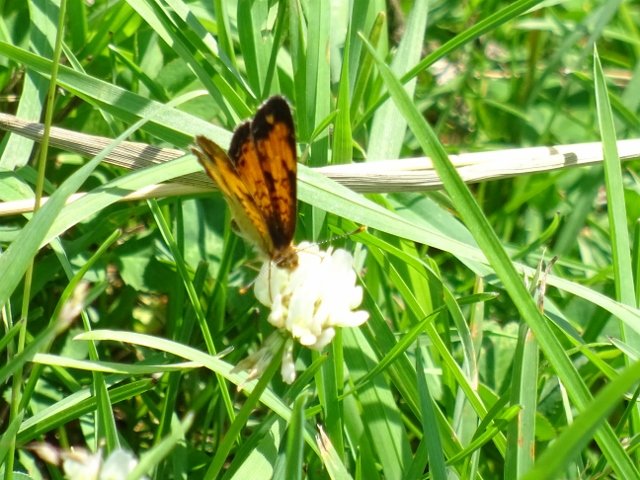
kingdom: Animalia
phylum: Arthropoda
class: Insecta
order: Lepidoptera
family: Nymphalidae
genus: Phyciodes
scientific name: Phyciodes tharos
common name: Northern Crescent
